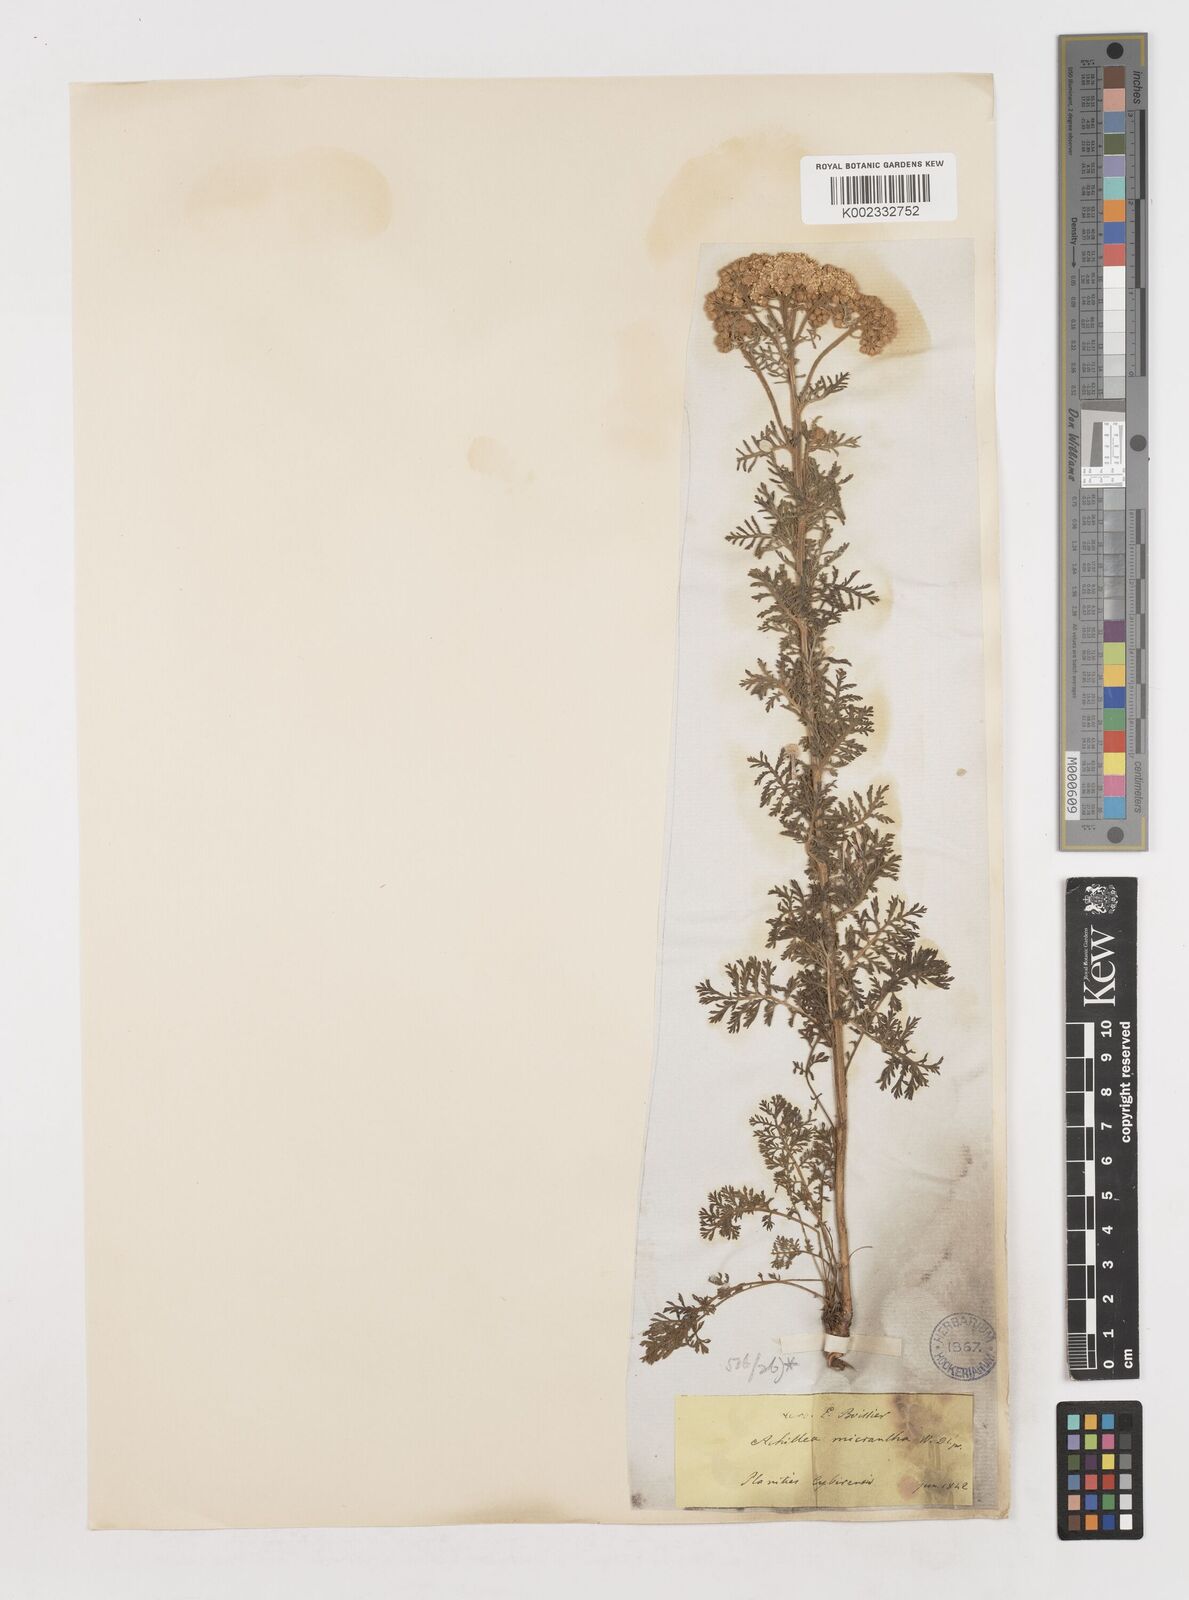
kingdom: Plantae
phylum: Tracheophyta
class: Magnoliopsida
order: Asterales
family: Asteraceae
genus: Achillea
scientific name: Achillea micrantha
